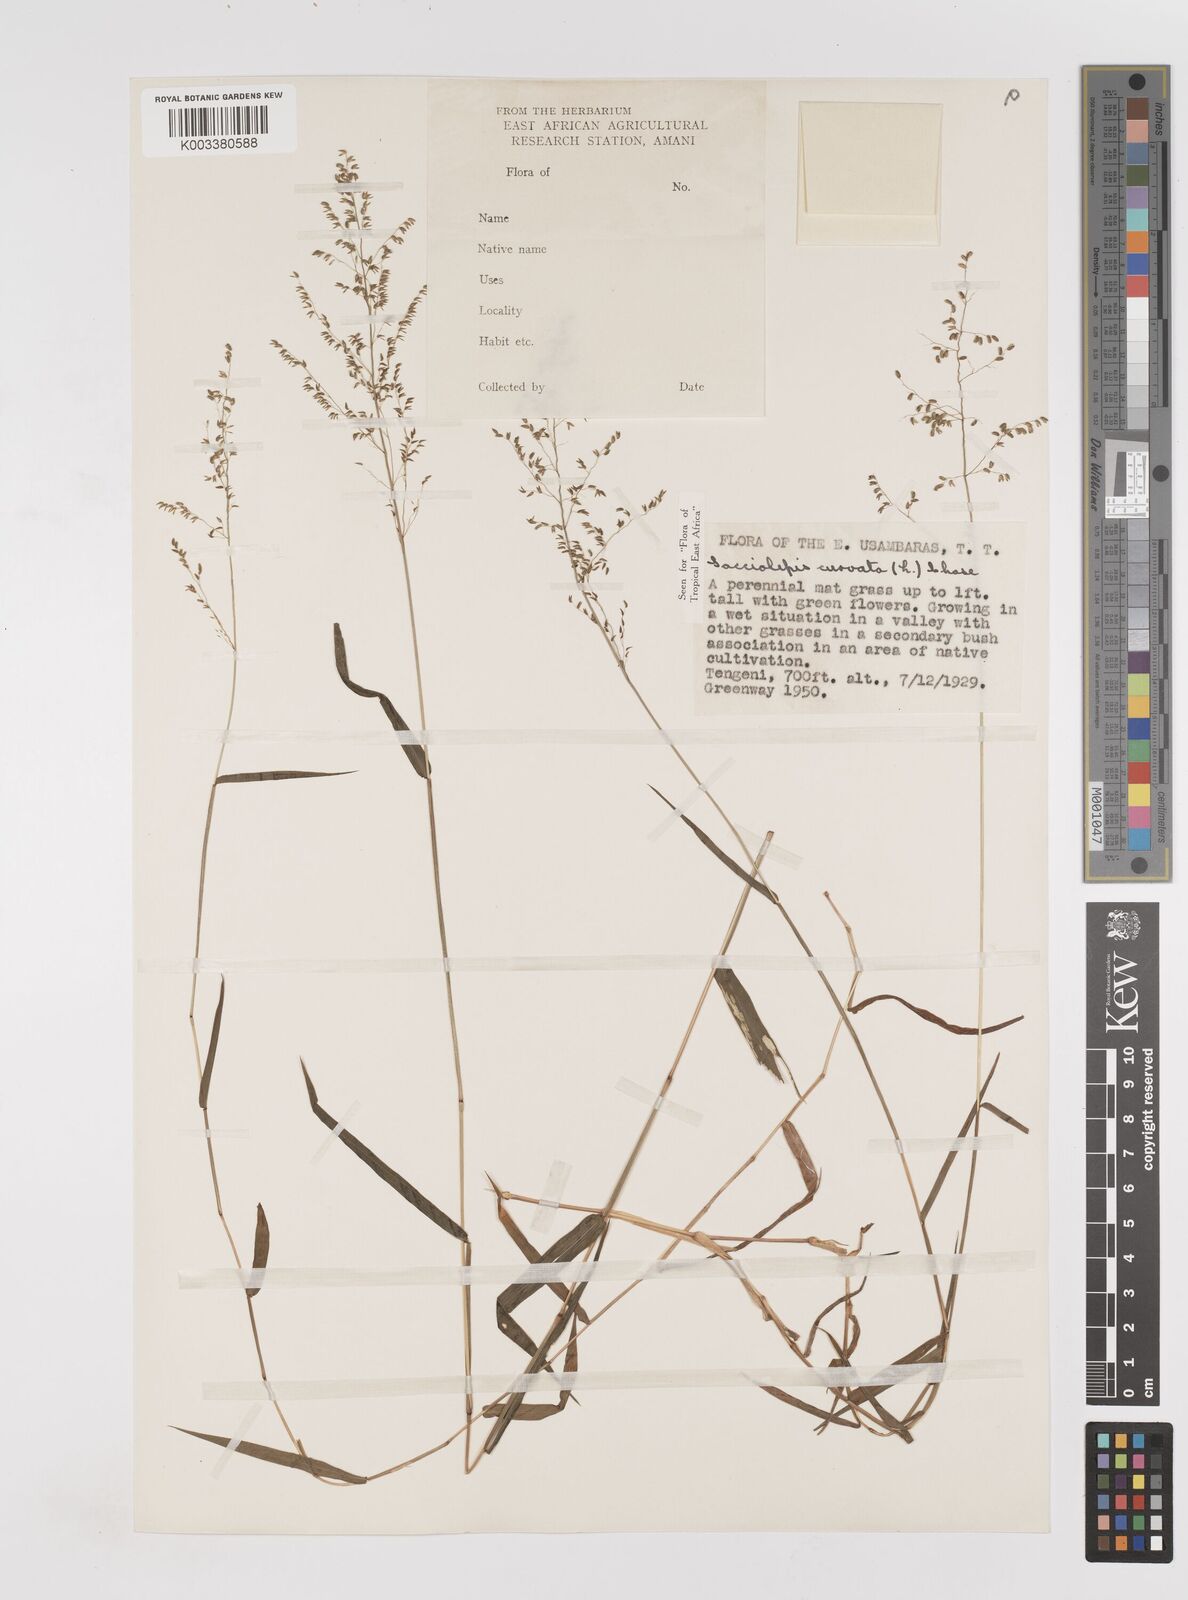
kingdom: Plantae
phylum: Tracheophyta
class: Liliopsida
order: Poales
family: Poaceae
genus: Sacciolepis
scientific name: Sacciolepis curvata
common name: Forest hood grass
